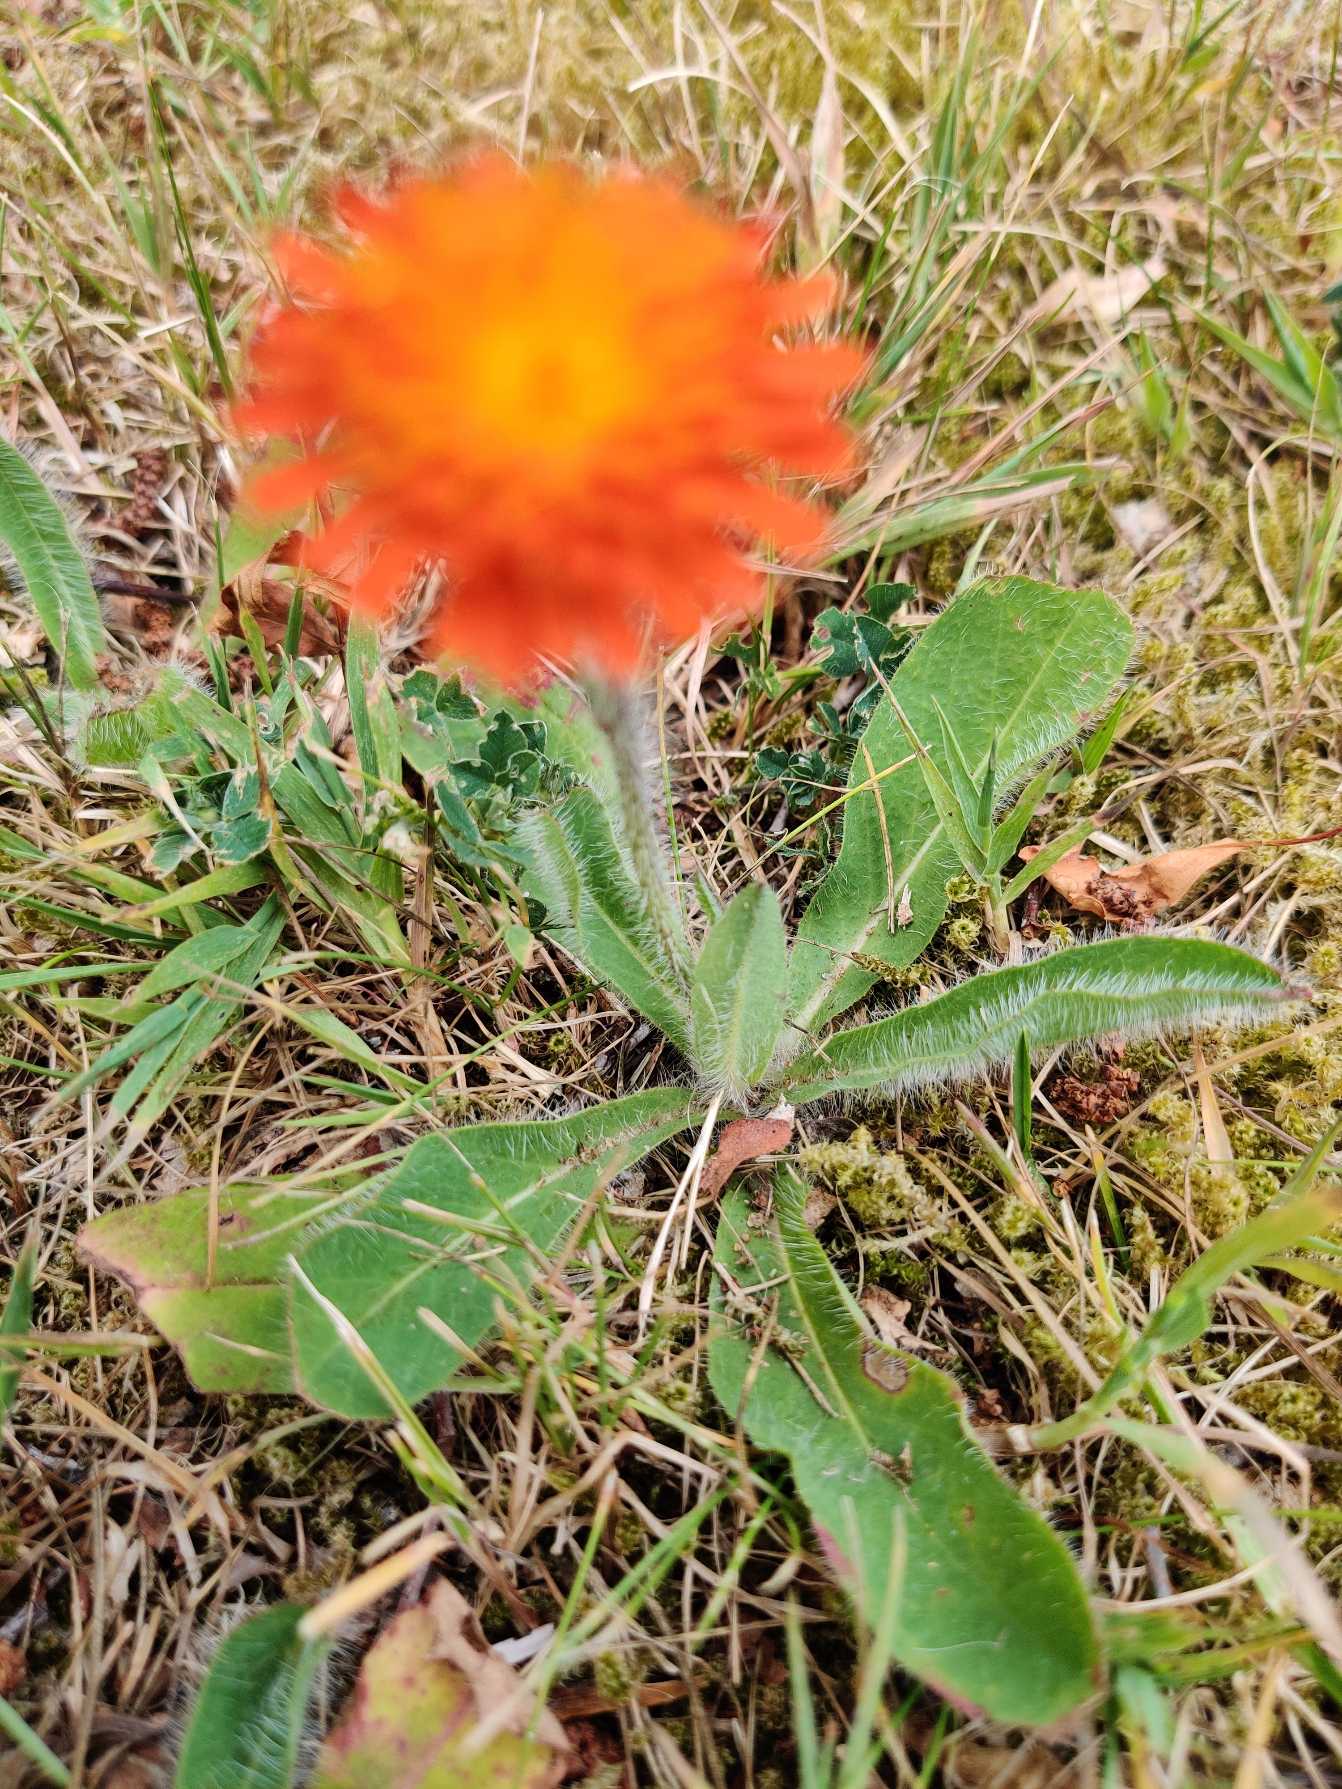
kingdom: Plantae
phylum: Tracheophyta
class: Magnoliopsida
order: Asterales
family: Asteraceae
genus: Pilosella
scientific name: Pilosella aurantiaca
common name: Pomerans-høgeurt
